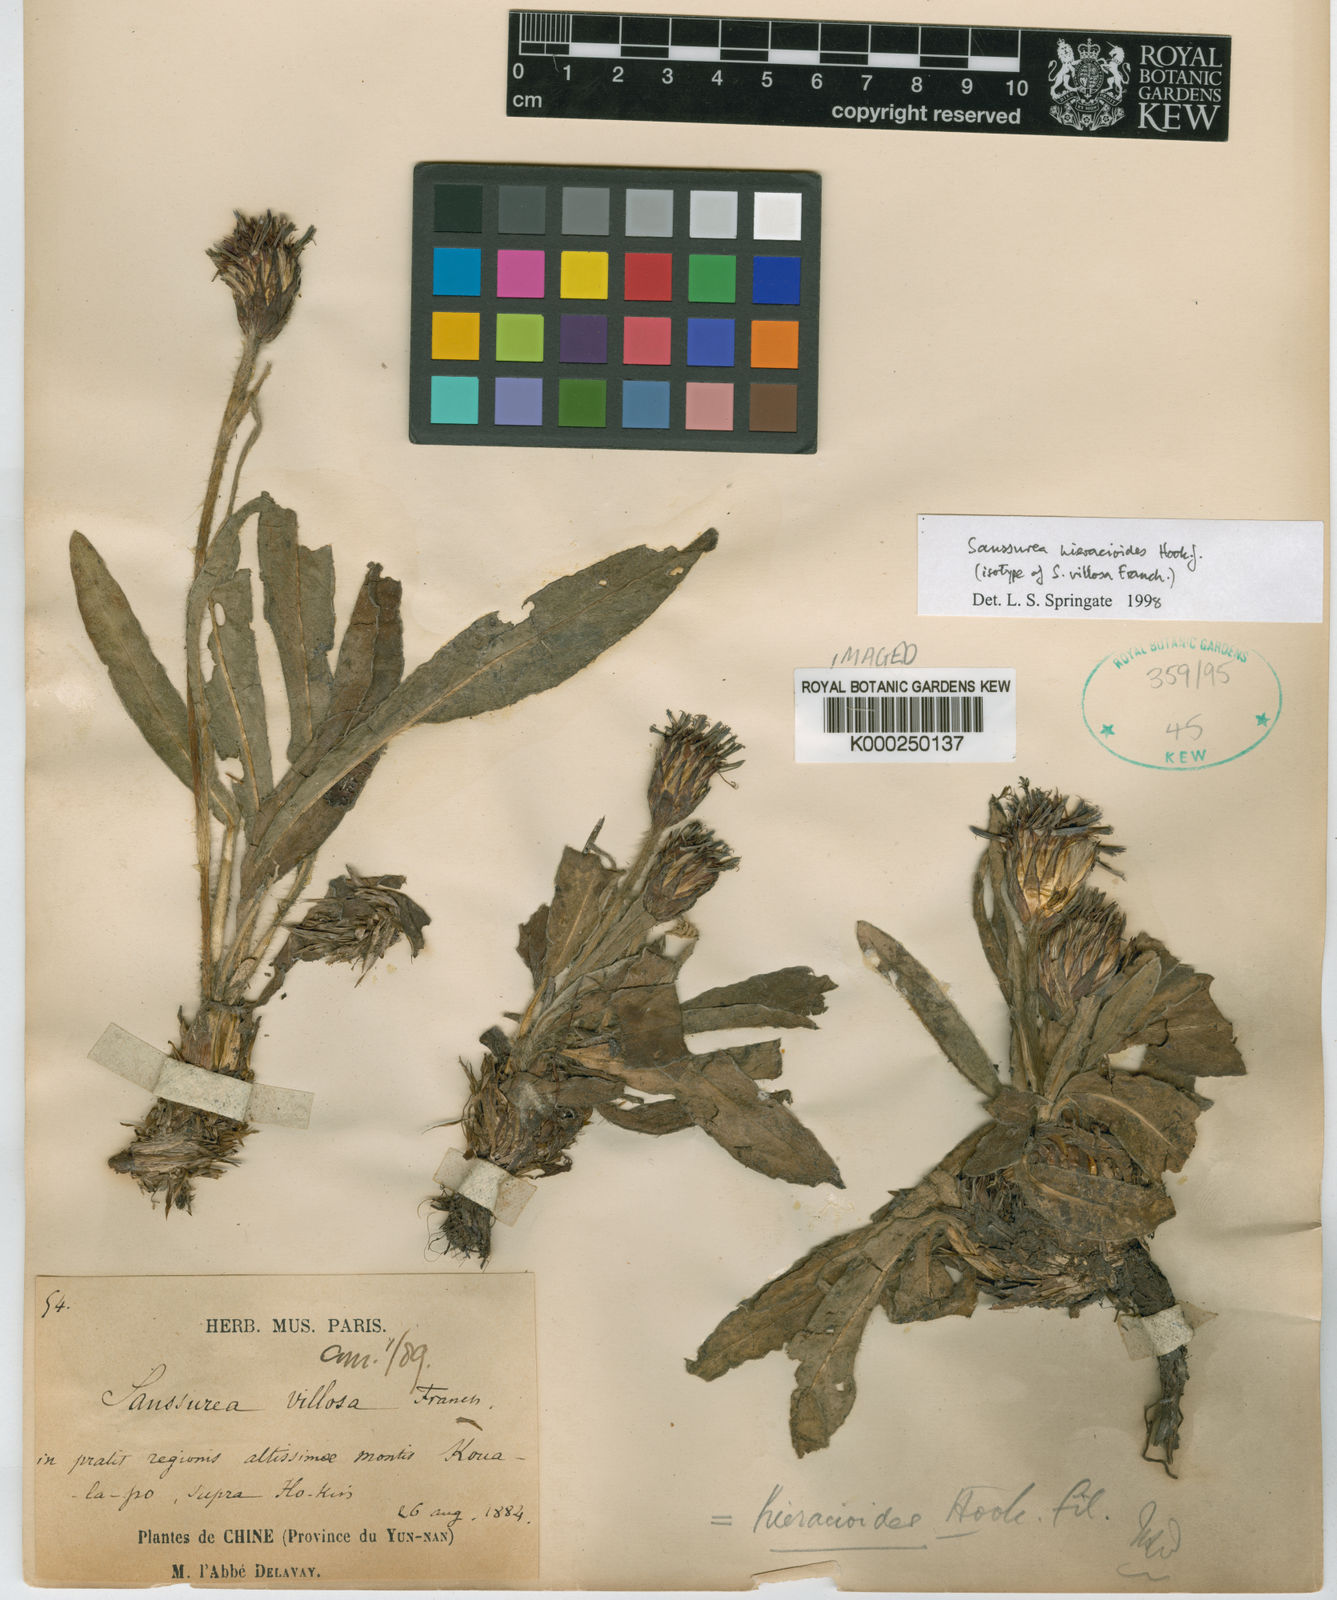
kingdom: Plantae
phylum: Tracheophyta
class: Magnoliopsida
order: Asterales
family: Asteraceae
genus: Saussurea
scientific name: Saussurea hieracioides
